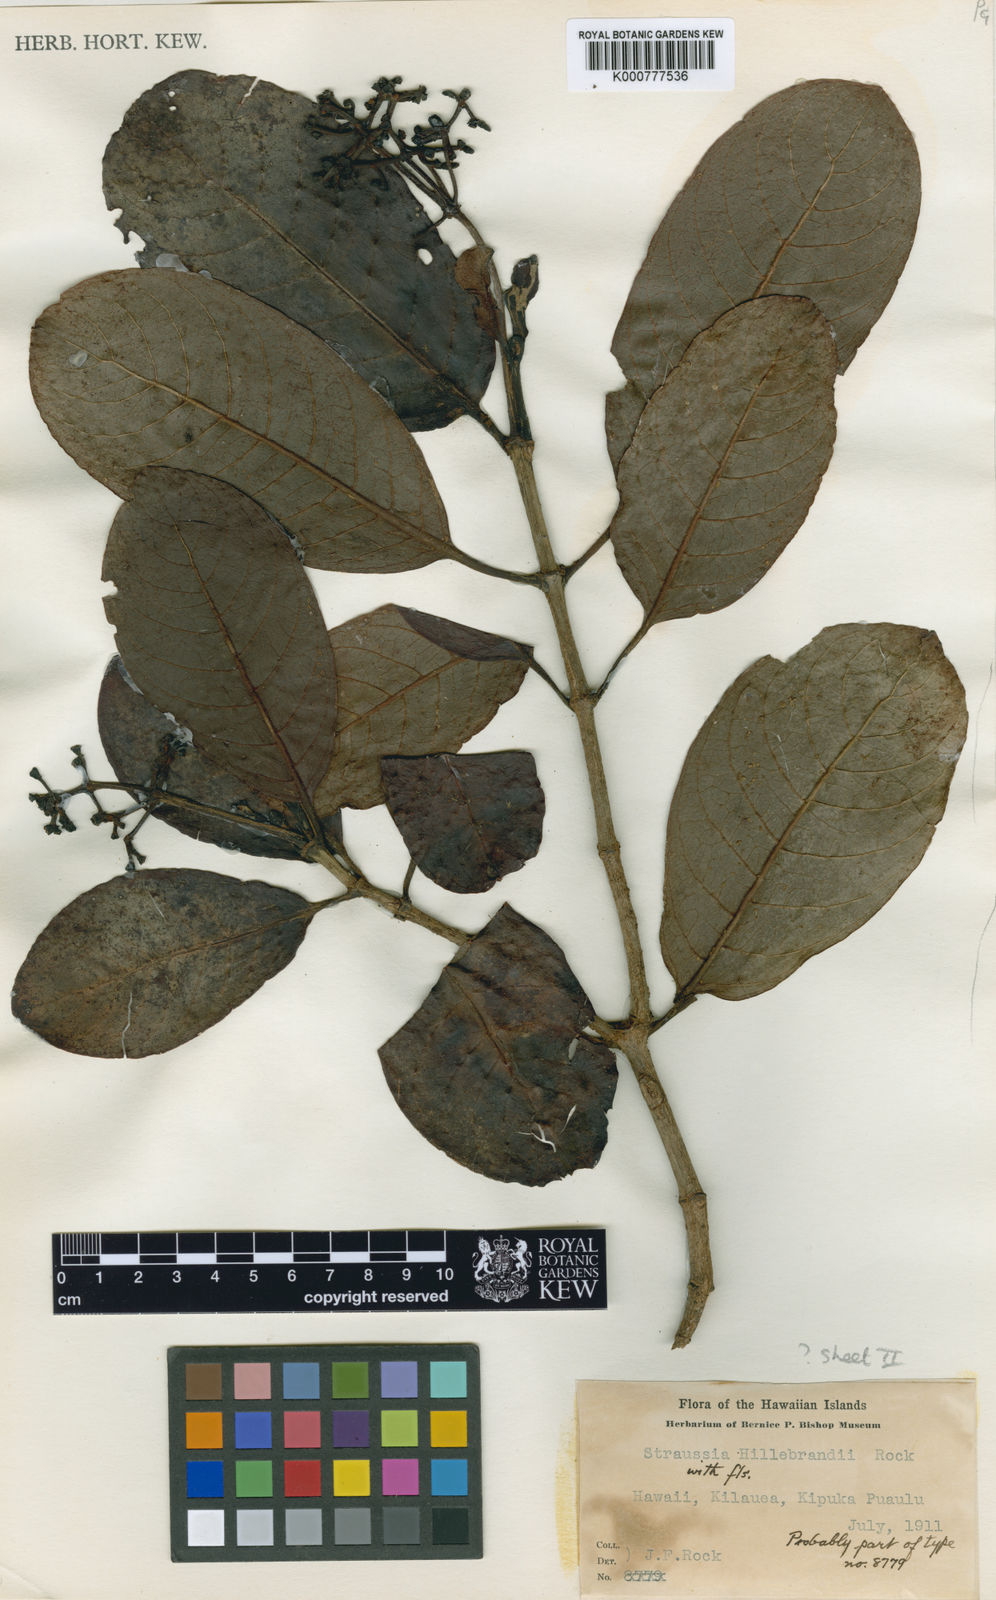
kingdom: Plantae
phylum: Tracheophyta
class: Magnoliopsida
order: Gentianales
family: Rubiaceae
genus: Psychotria
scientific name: Psychotria hawaiiensis
